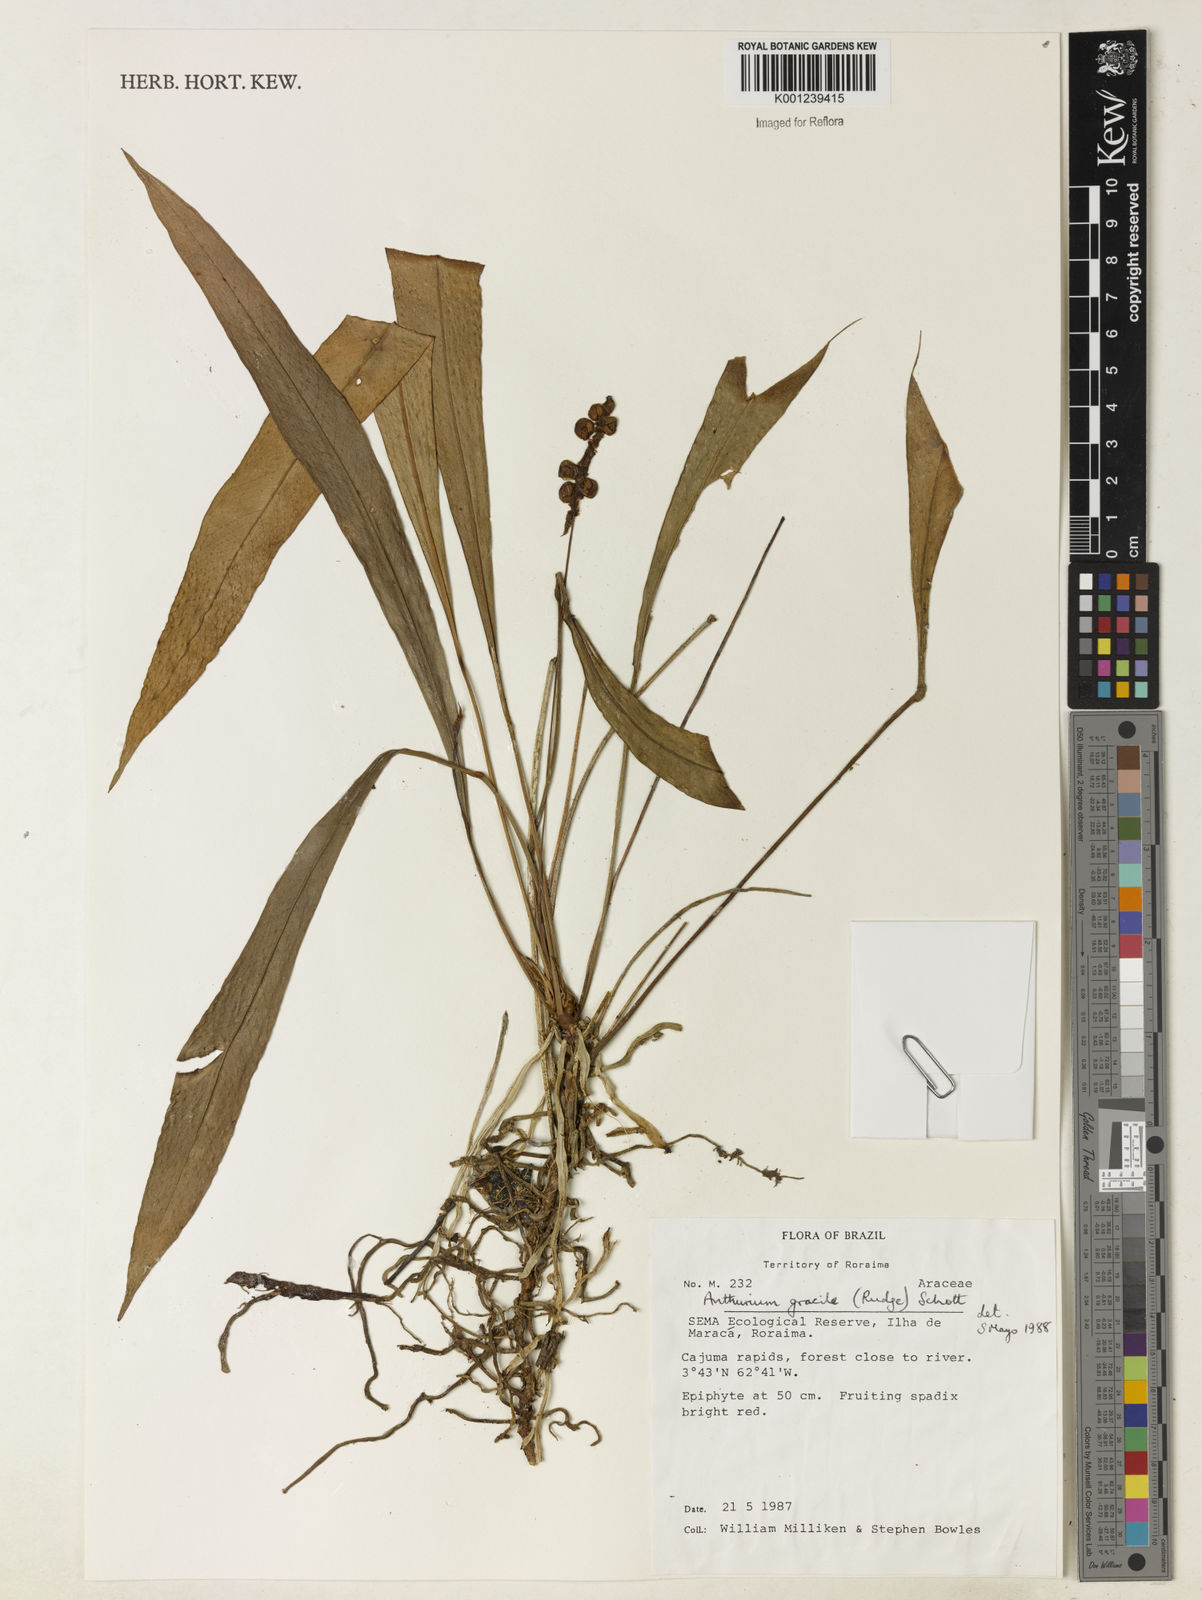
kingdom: Plantae
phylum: Tracheophyta
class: Liliopsida
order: Alismatales
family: Araceae
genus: Anthurium
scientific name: Anthurium gracile
